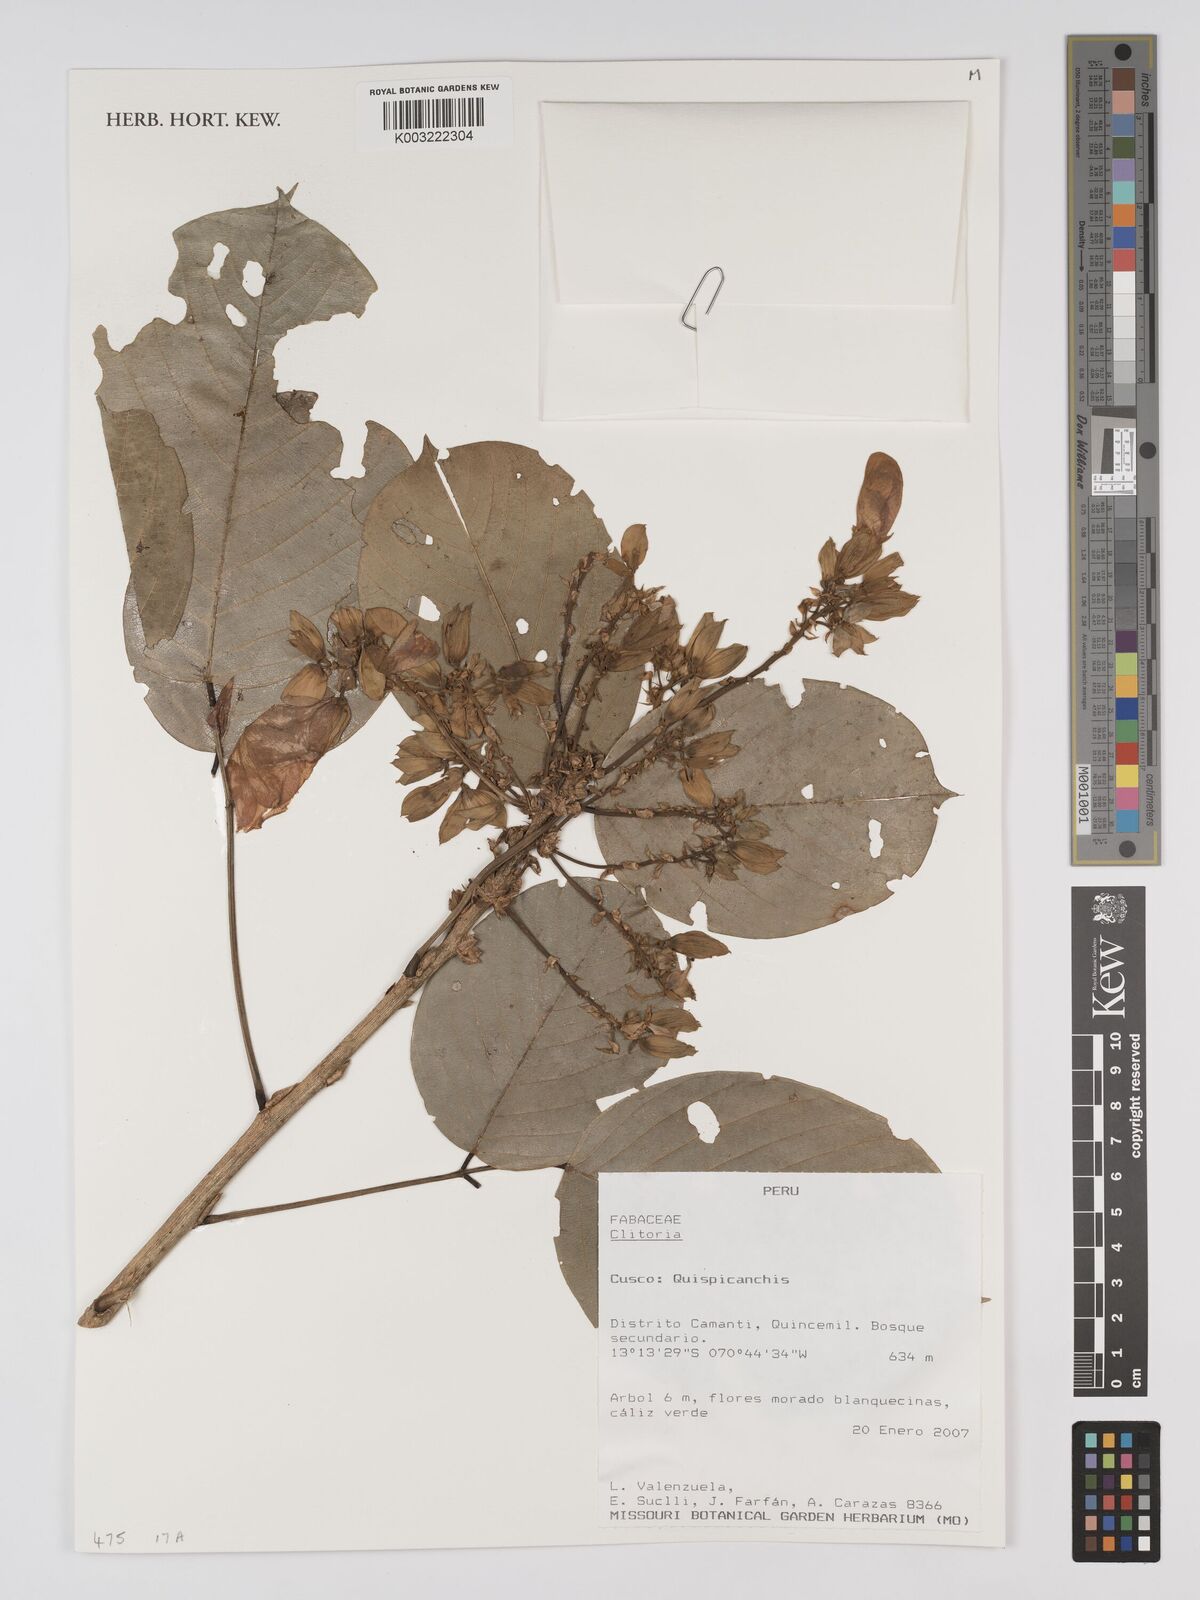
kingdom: Plantae
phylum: Tracheophyta
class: Magnoliopsida
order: Fabales
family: Fabaceae
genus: Clitoria
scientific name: Clitoria
